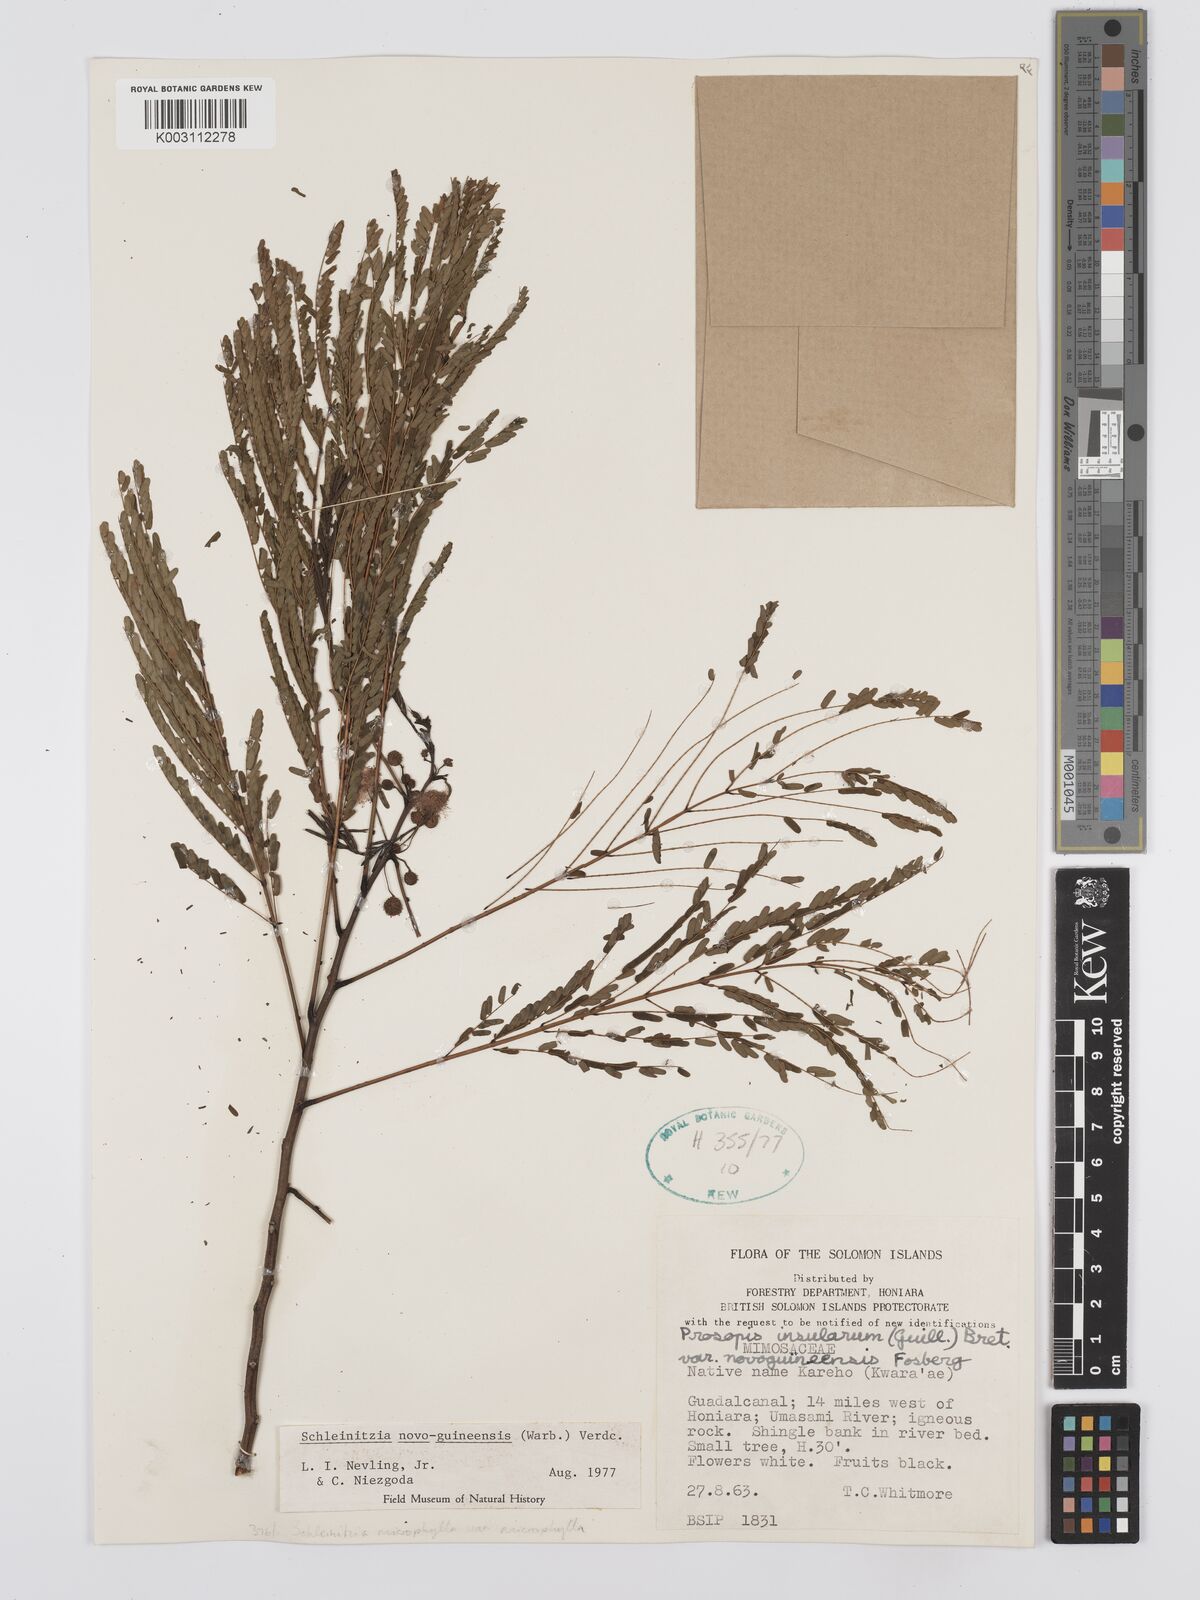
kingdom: Plantae
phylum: Tracheophyta
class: Magnoliopsida
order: Fabales
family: Fabaceae
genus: Schleinitzia
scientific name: Schleinitzia novoguineensis
